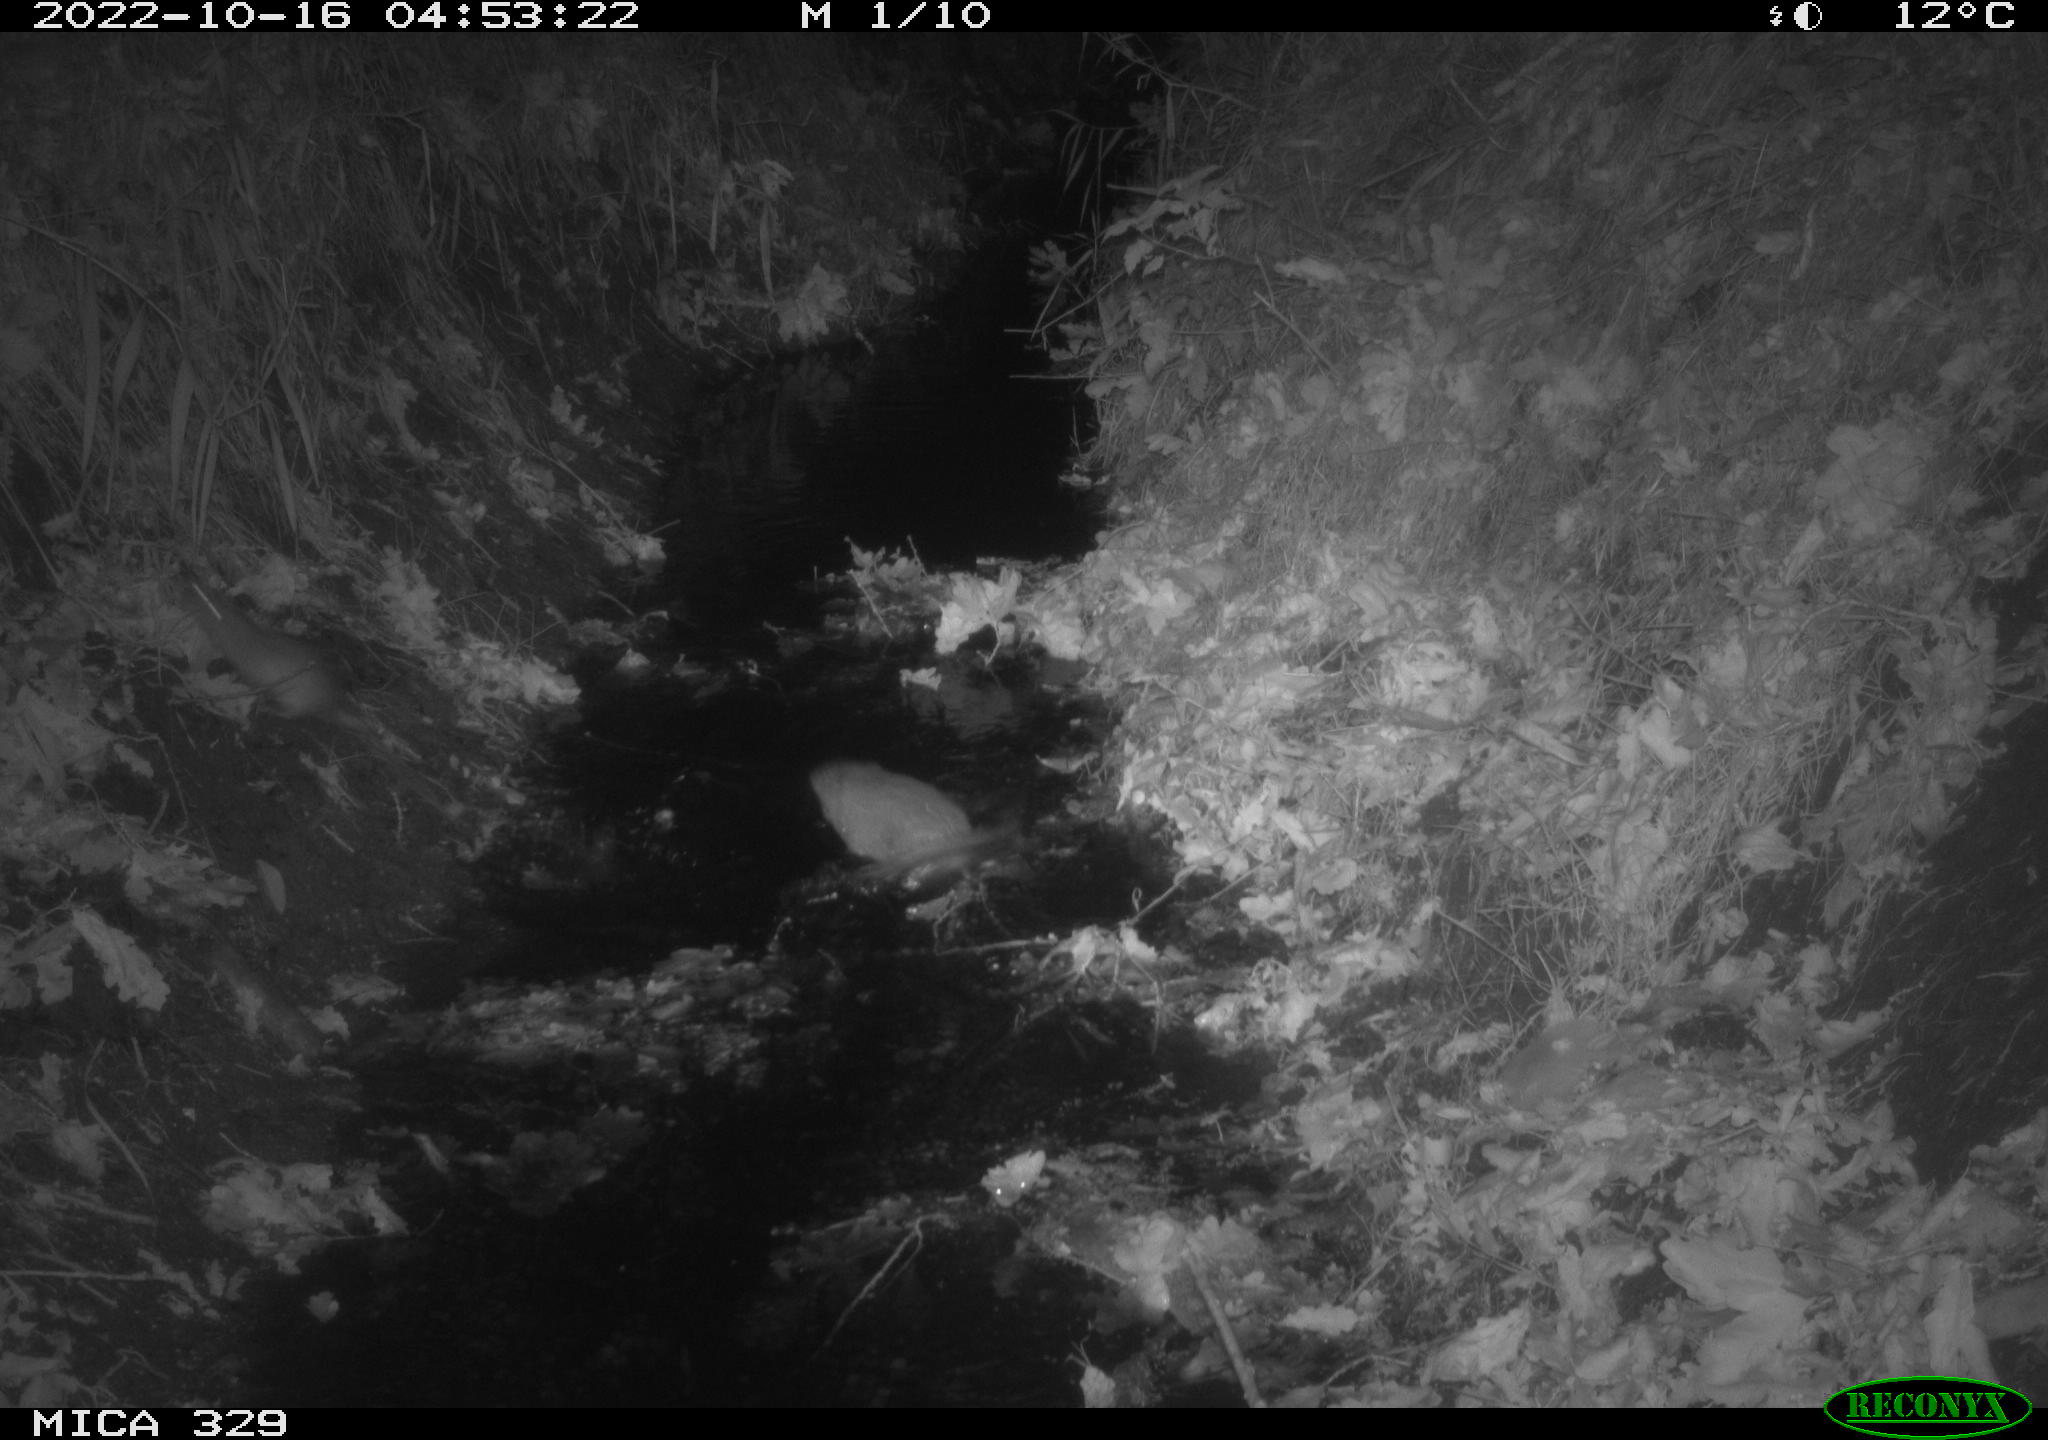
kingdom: Animalia
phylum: Chordata
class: Mammalia
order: Rodentia
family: Cricetidae
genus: Ondatra
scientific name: Ondatra zibethicus
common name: Muskrat
